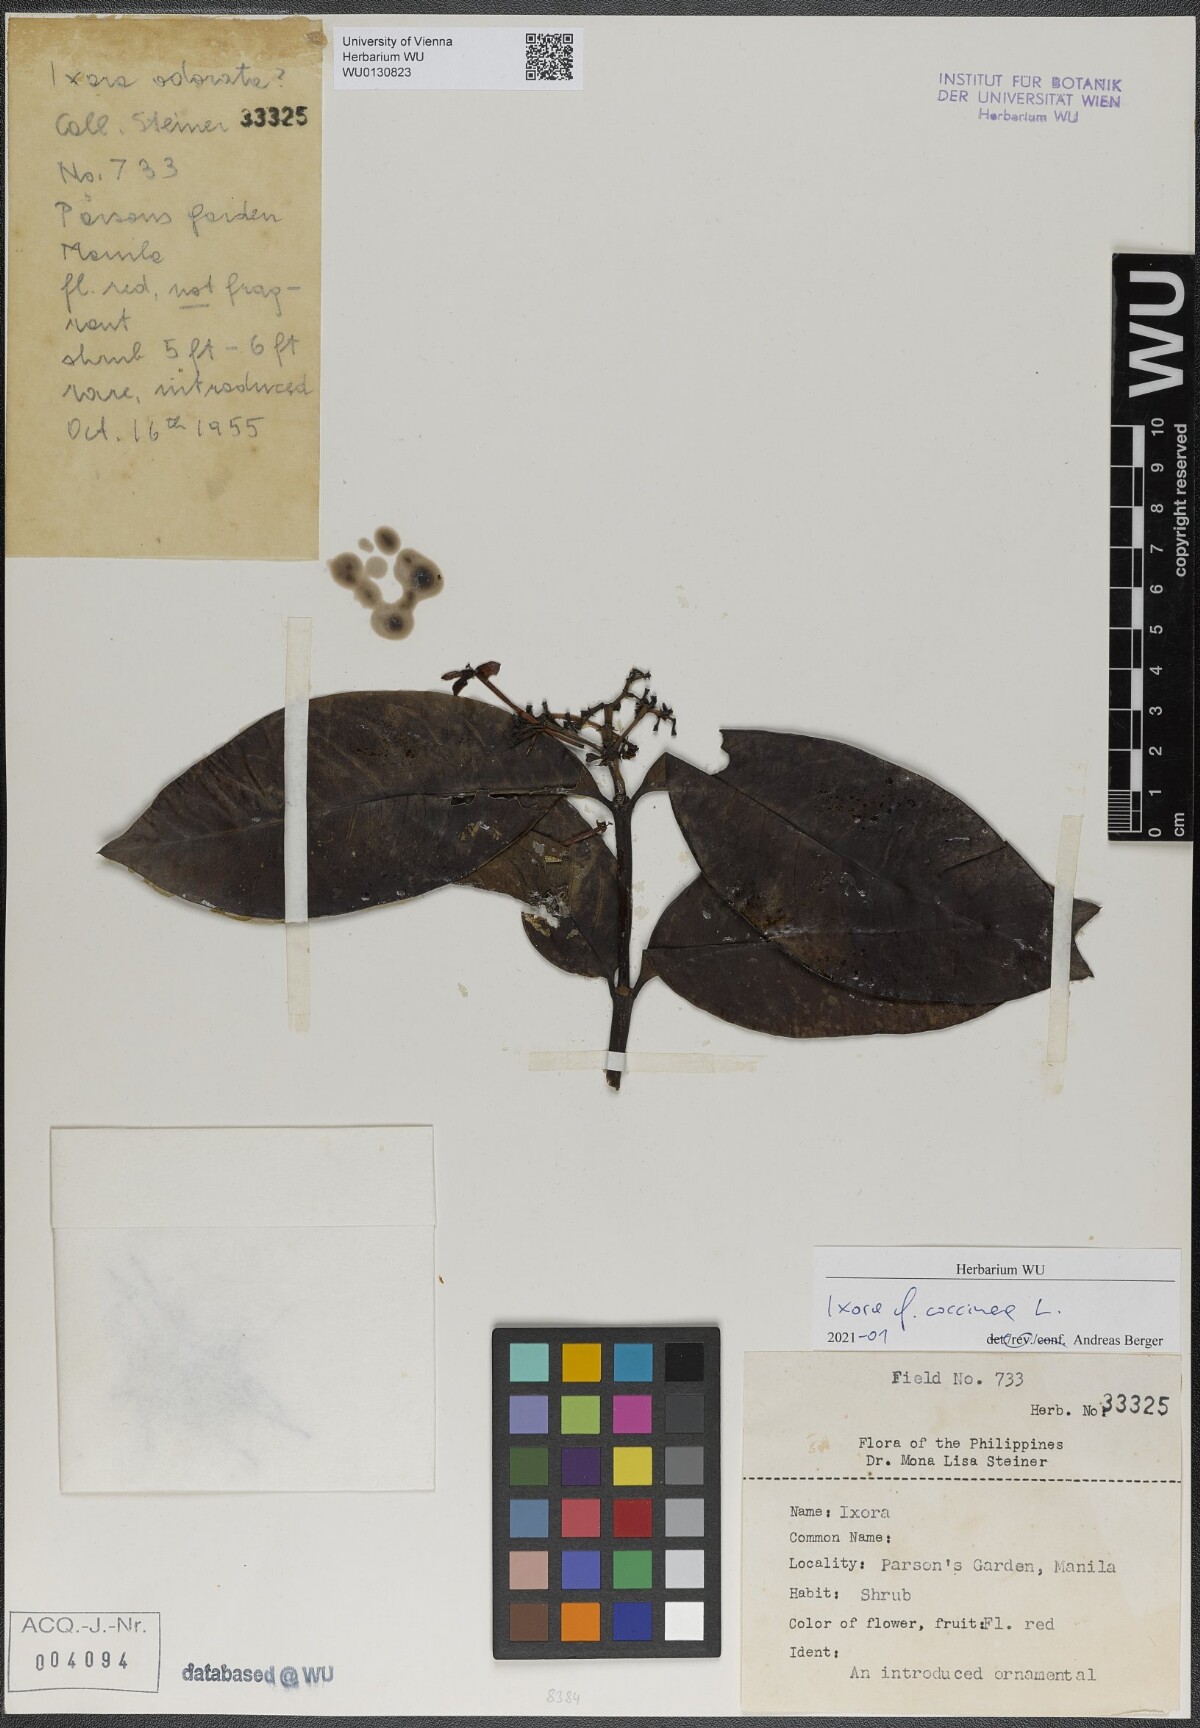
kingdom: Plantae
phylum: Tracheophyta
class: Magnoliopsida
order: Gentianales
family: Rubiaceae
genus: Ixora
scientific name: Ixora coccinea
